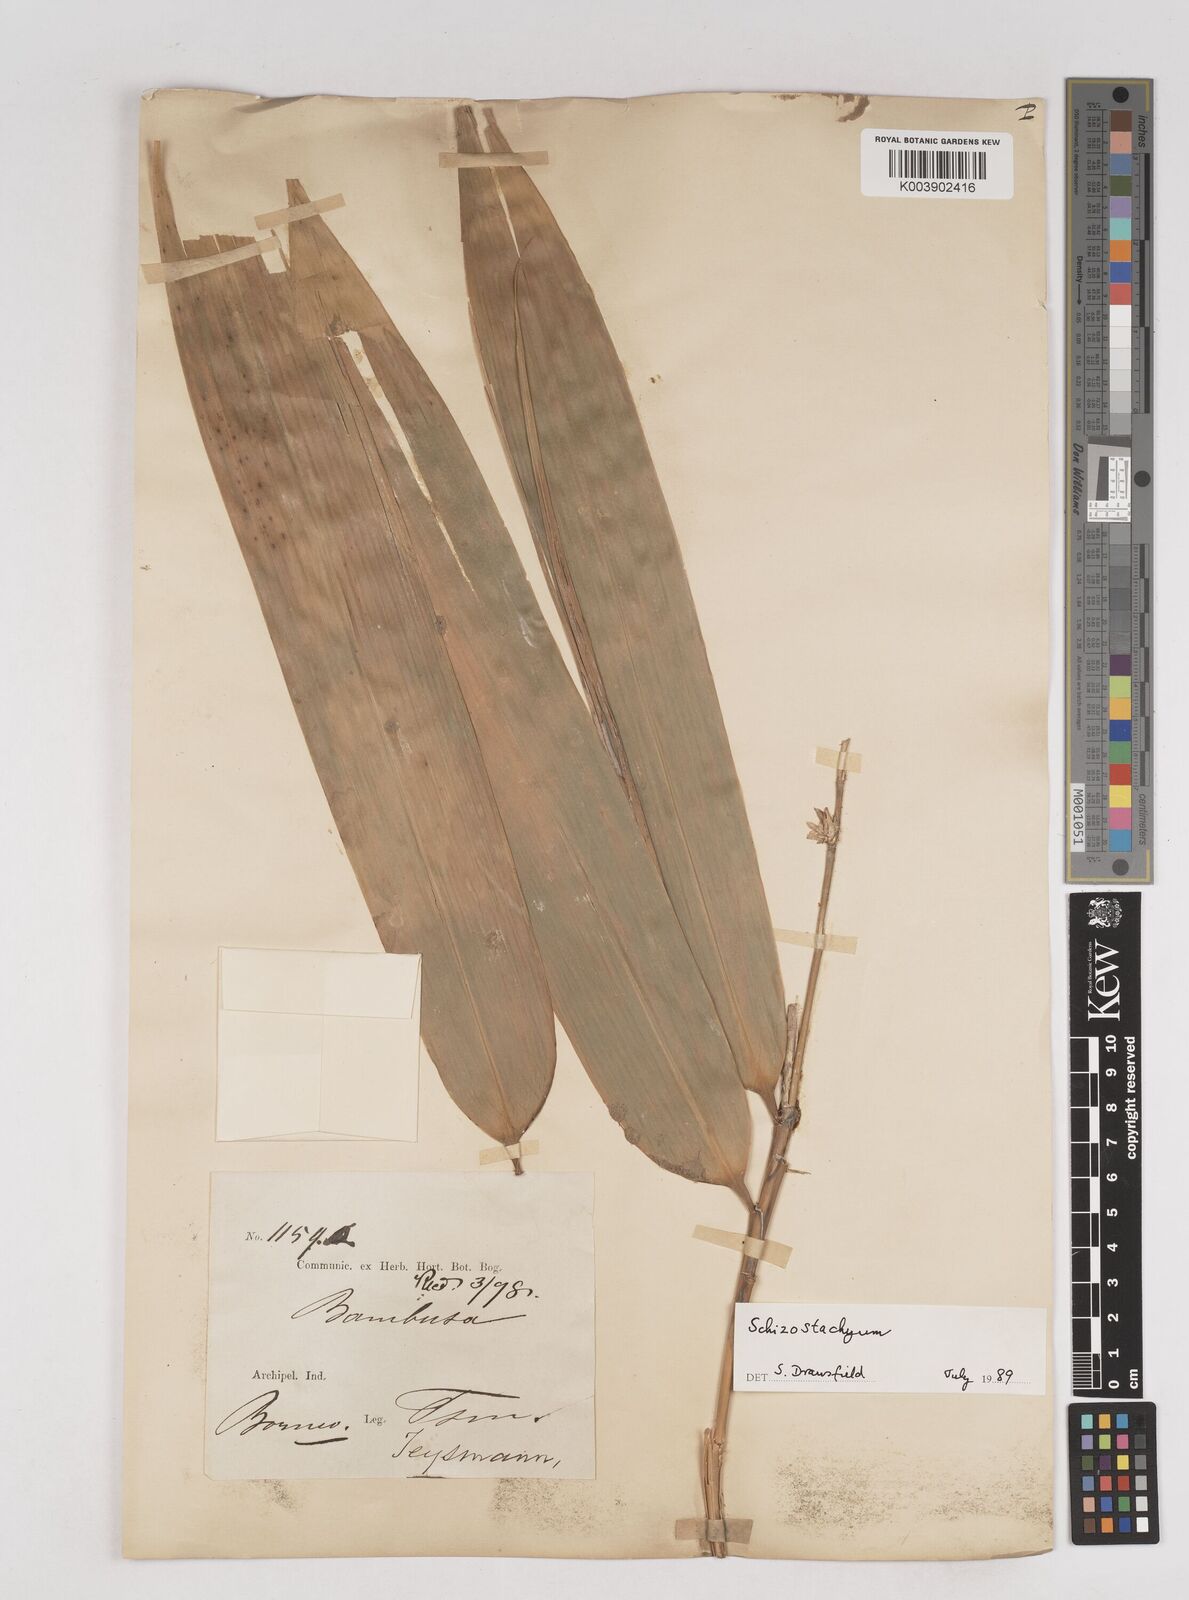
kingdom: Plantae
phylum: Tracheophyta
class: Liliopsida
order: Poales
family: Poaceae
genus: Schizostachyum
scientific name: Schizostachyum
